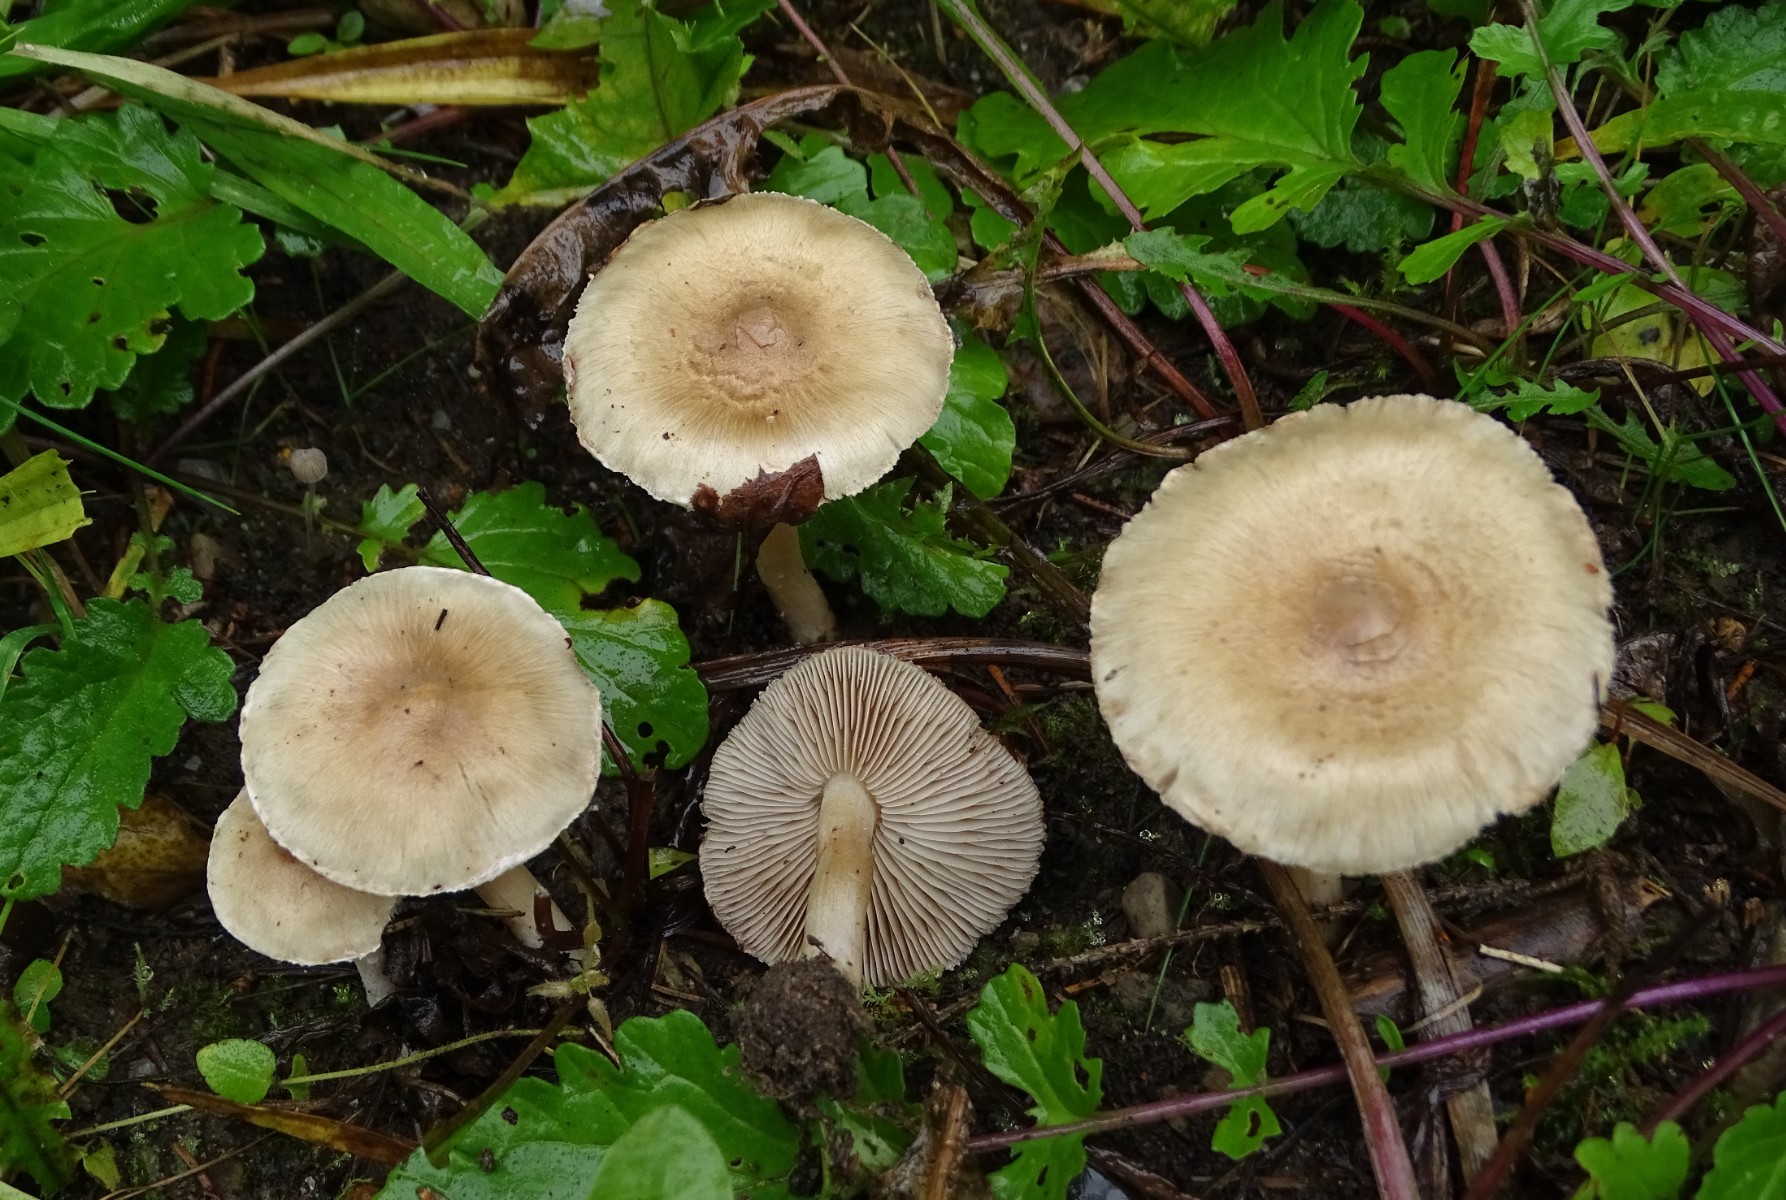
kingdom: Fungi
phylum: Basidiomycota
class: Agaricomycetes
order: Agaricales
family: Inocybaceae
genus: Inocybe
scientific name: Inocybe sindonia
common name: bleg trævlhat
